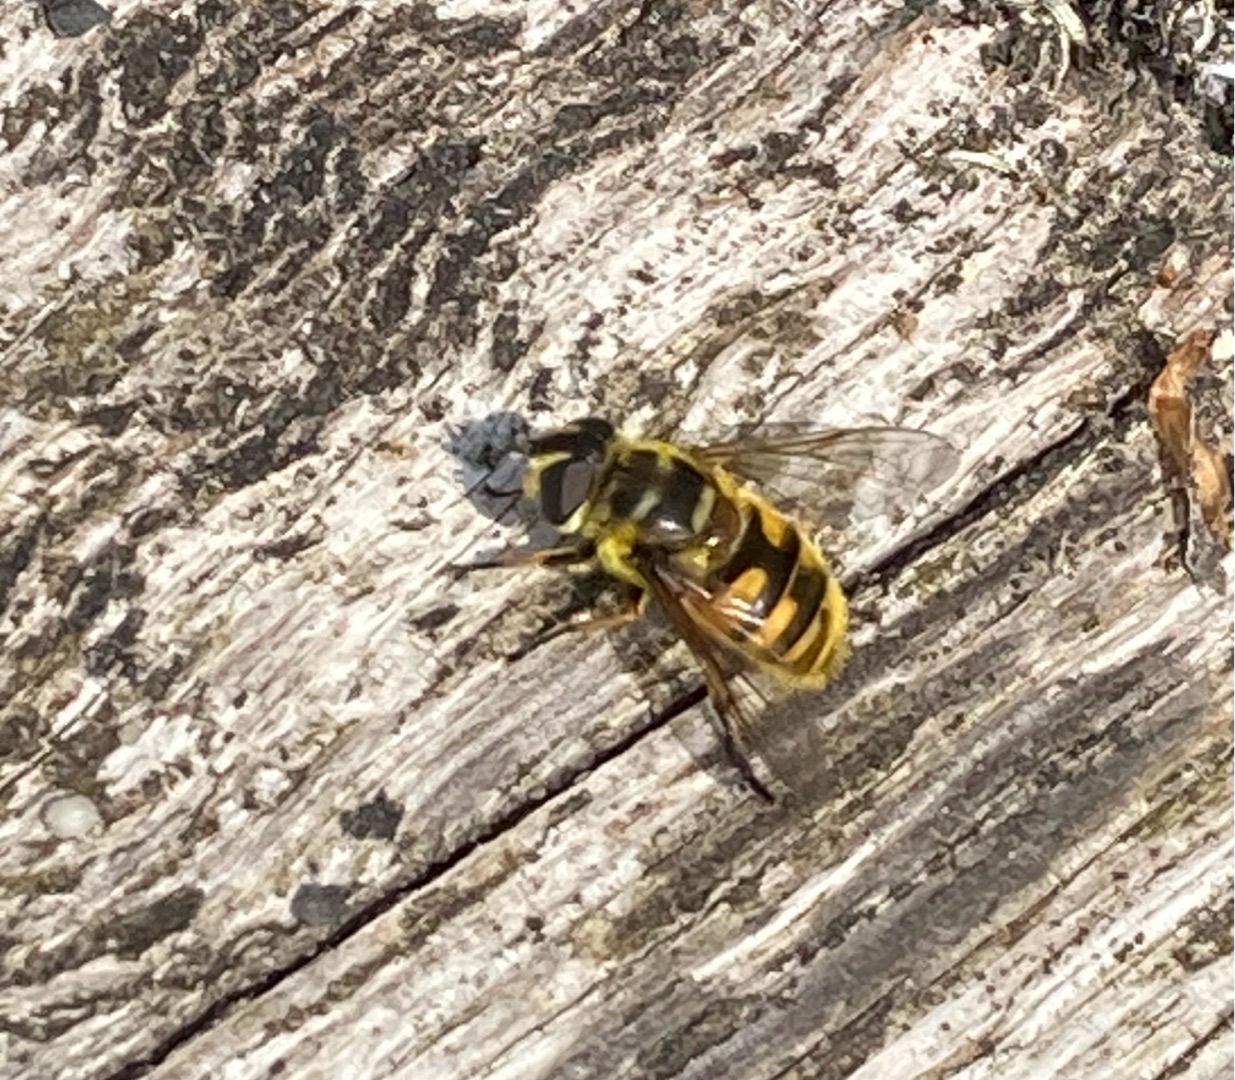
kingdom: Animalia
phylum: Arthropoda
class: Insecta
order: Diptera
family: Syrphidae
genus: Myathropa
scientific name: Myathropa florea
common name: Dødningehoved-svirreflue
